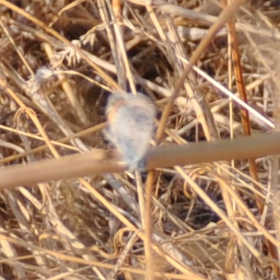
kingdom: Animalia
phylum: Arthropoda
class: Insecta
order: Lepidoptera
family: Lycaenidae
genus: Plebejus
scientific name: Plebejus acmon
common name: Acmon Blue
